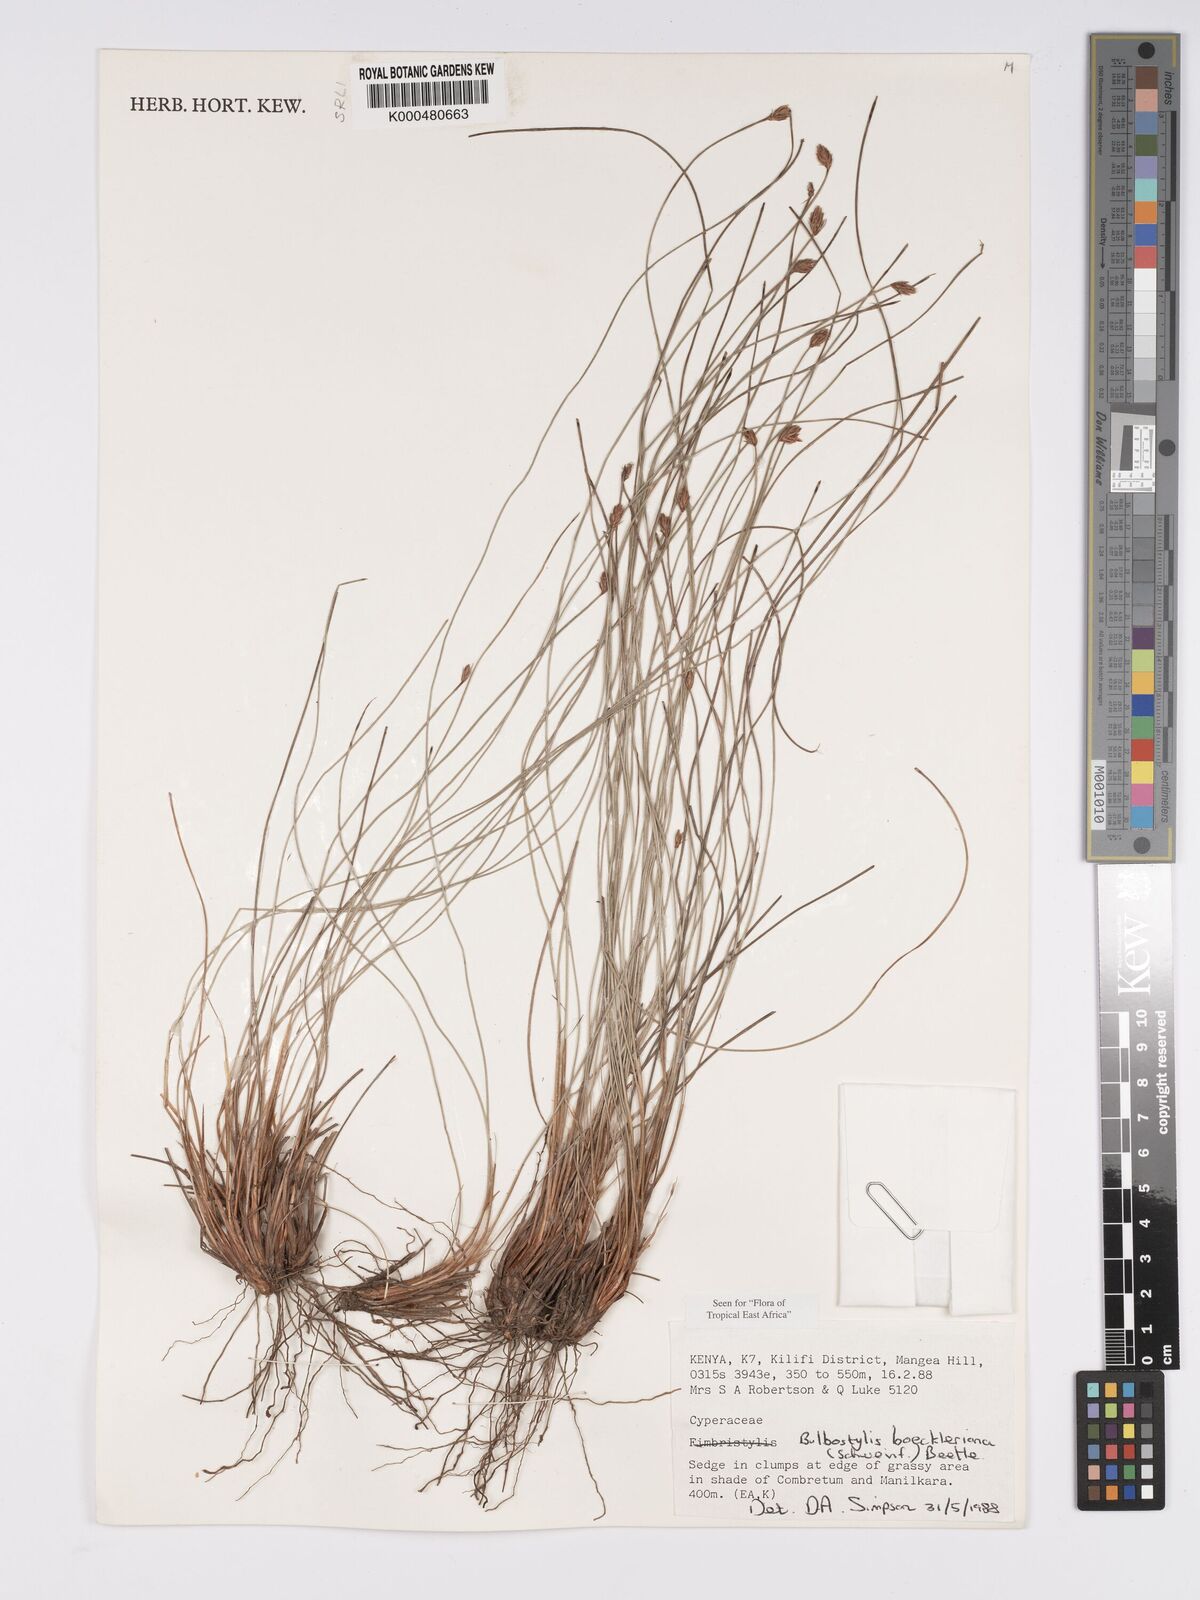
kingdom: Plantae
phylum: Tracheophyta
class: Liliopsida
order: Poales
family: Cyperaceae
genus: Bulbostylis
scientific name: Bulbostylis boeckeleriana
